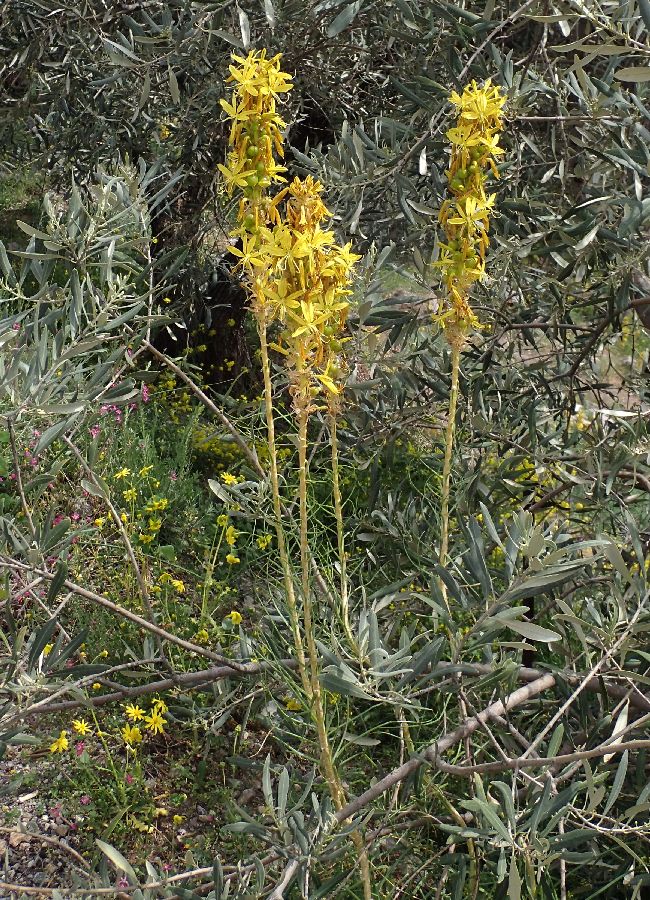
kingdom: Plantae
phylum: Tracheophyta
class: Liliopsida
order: Asparagales
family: Asphodelaceae
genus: Asphodeline
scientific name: Asphodeline lutea
